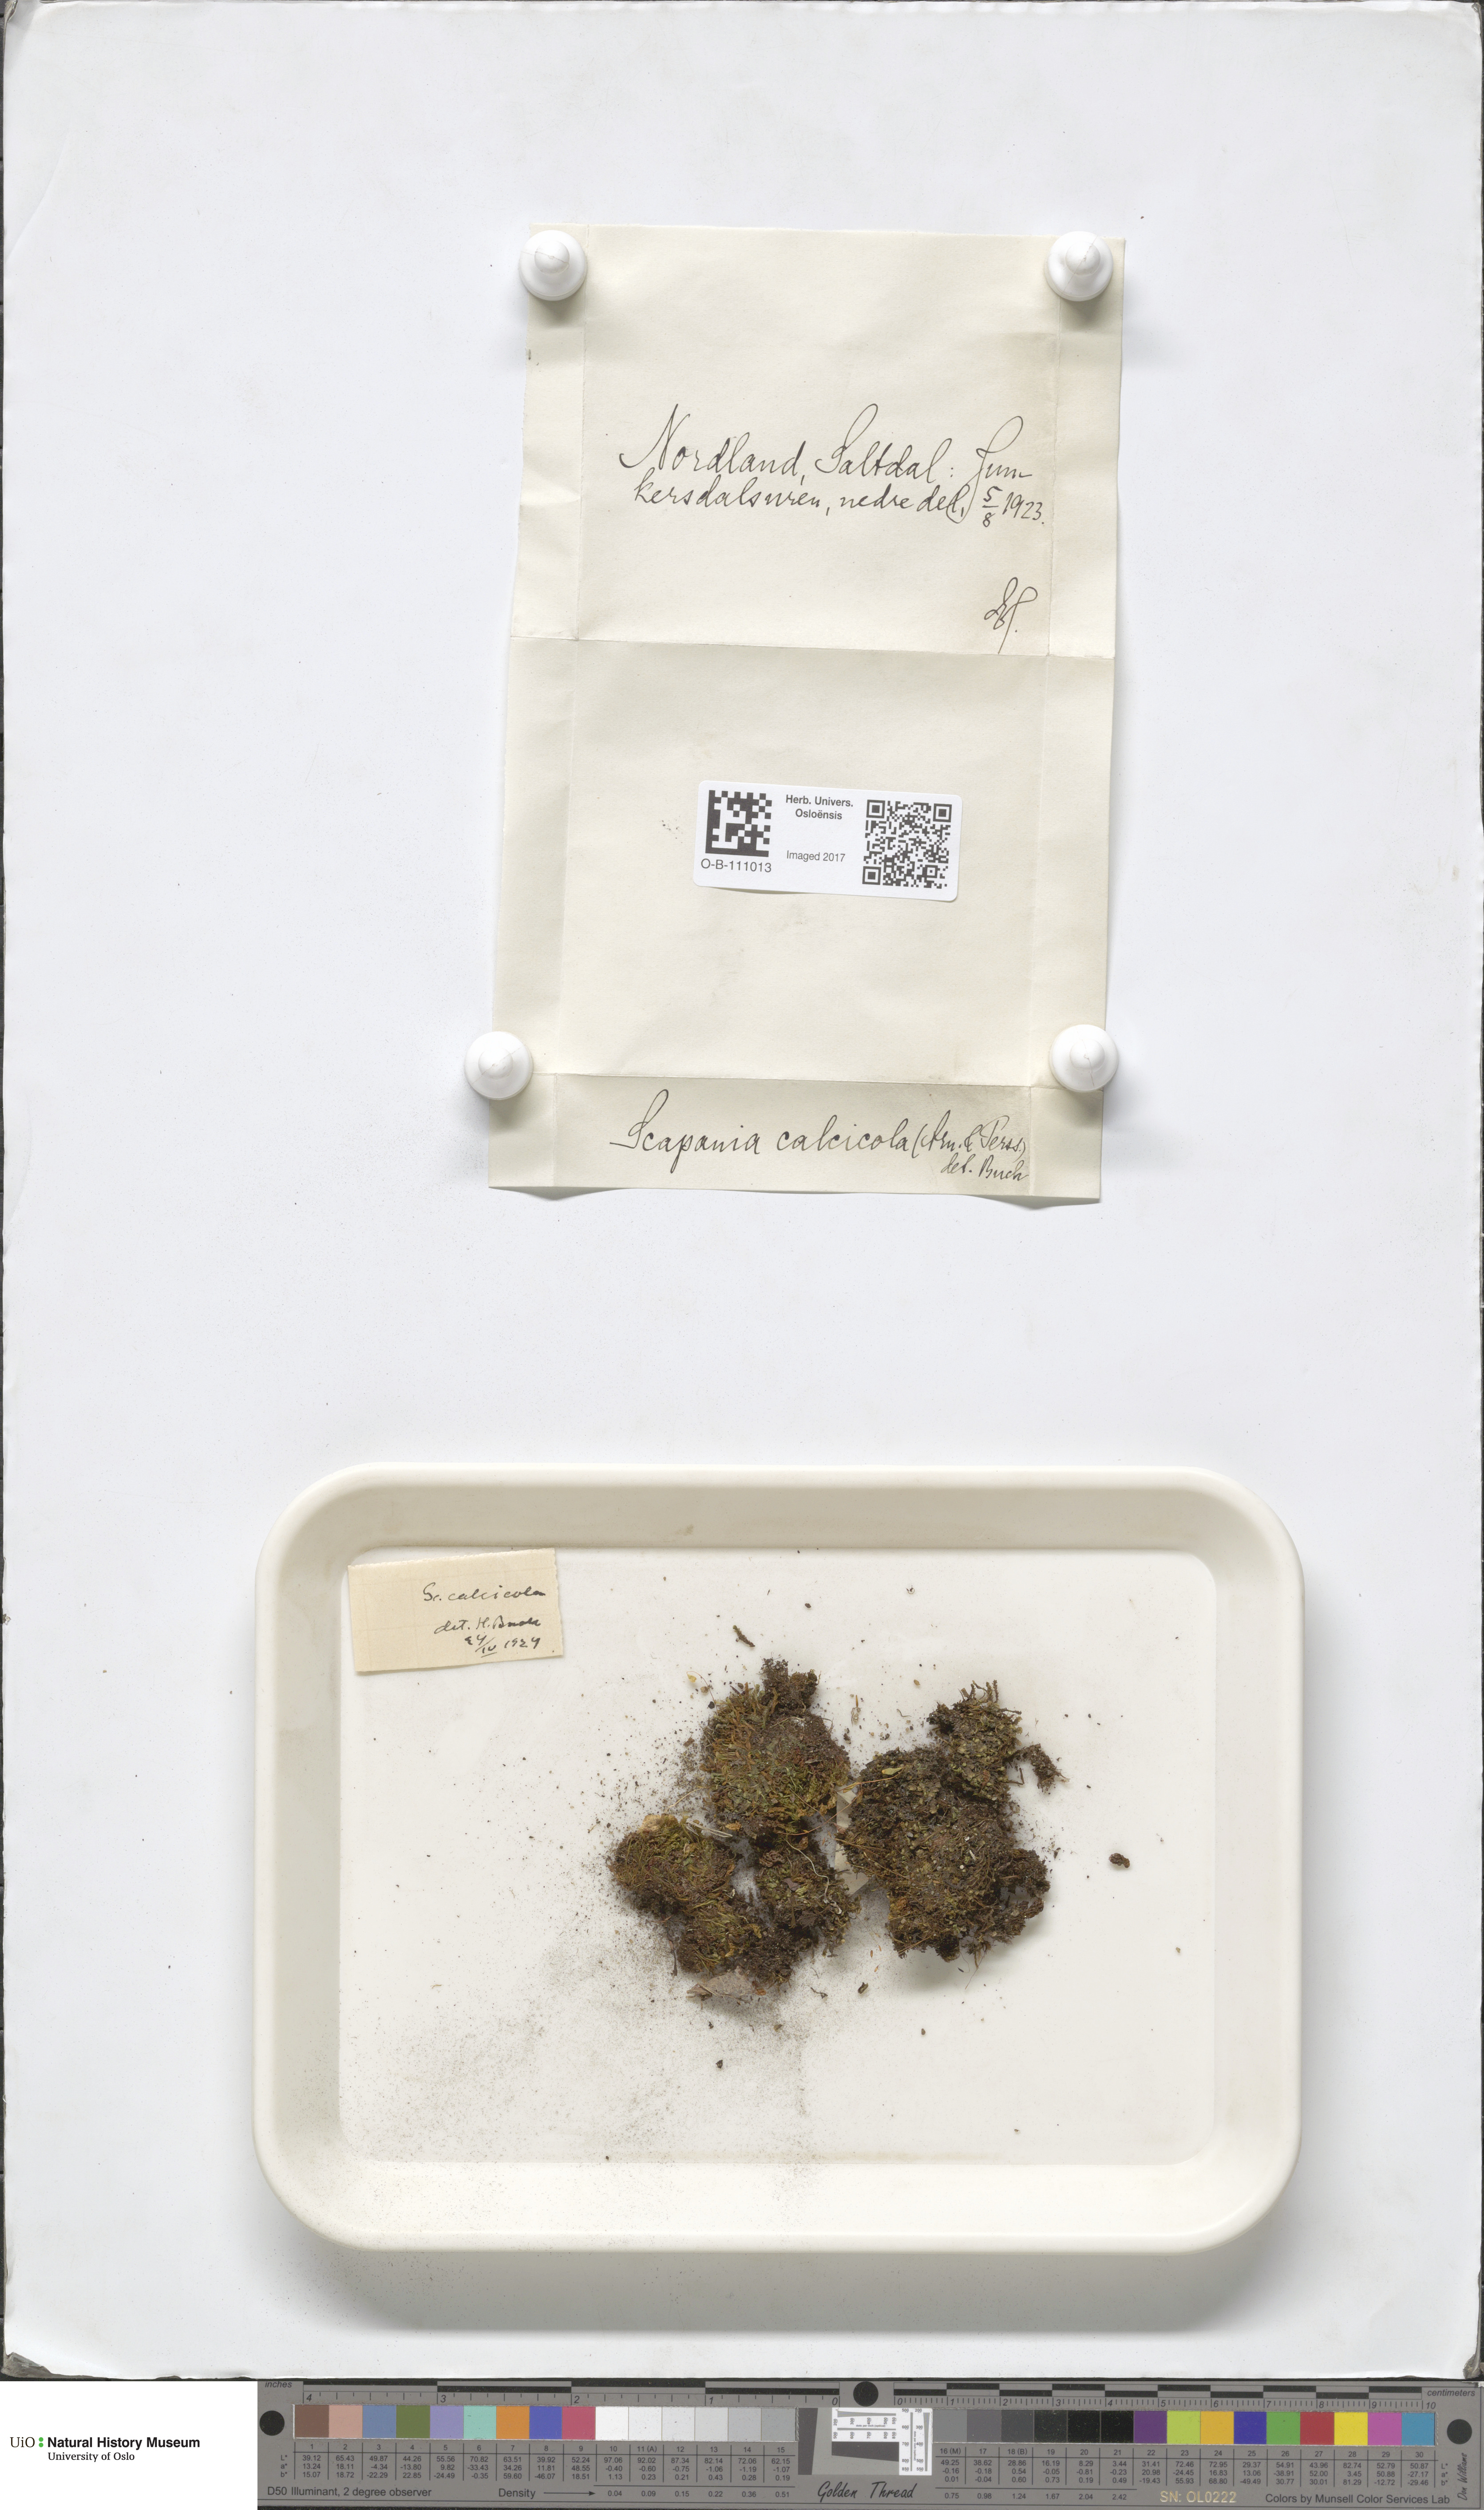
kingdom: Plantae
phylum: Marchantiophyta
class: Jungermanniopsida
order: Jungermanniales
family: Scapaniaceae
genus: Scapania
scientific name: Scapania calcicola
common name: Calcicolous earwort
